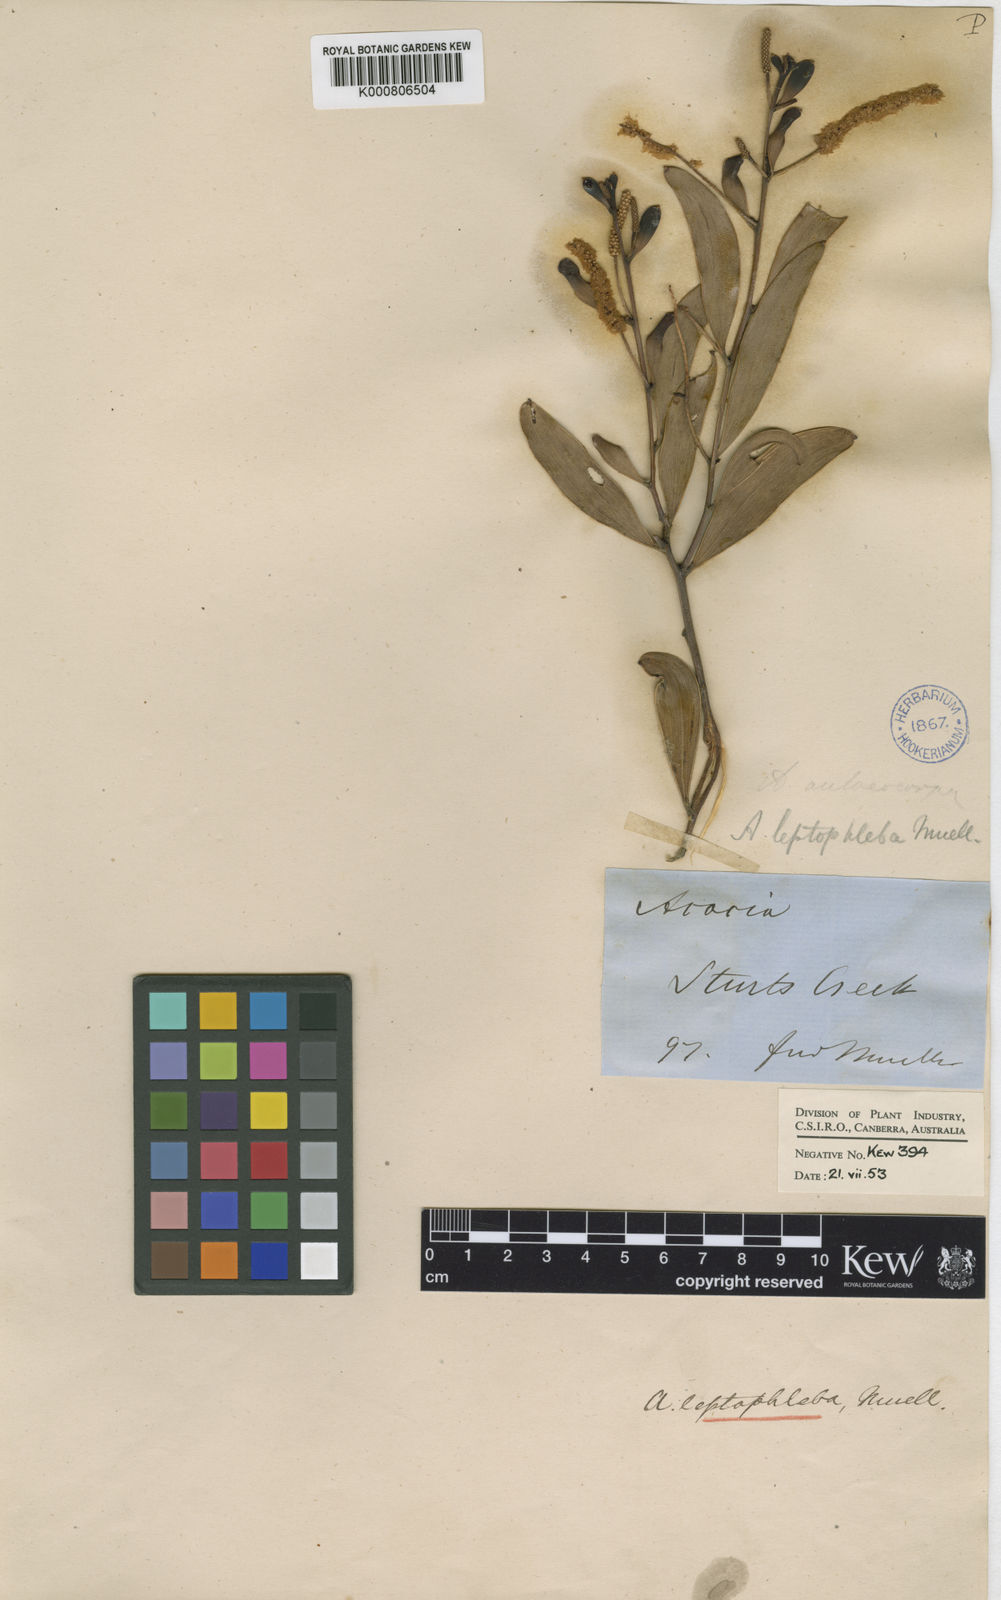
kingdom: Plantae
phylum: Tracheophyta
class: Magnoliopsida
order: Fabales
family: Fabaceae
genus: Acacia
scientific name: Acacia leptophleba
